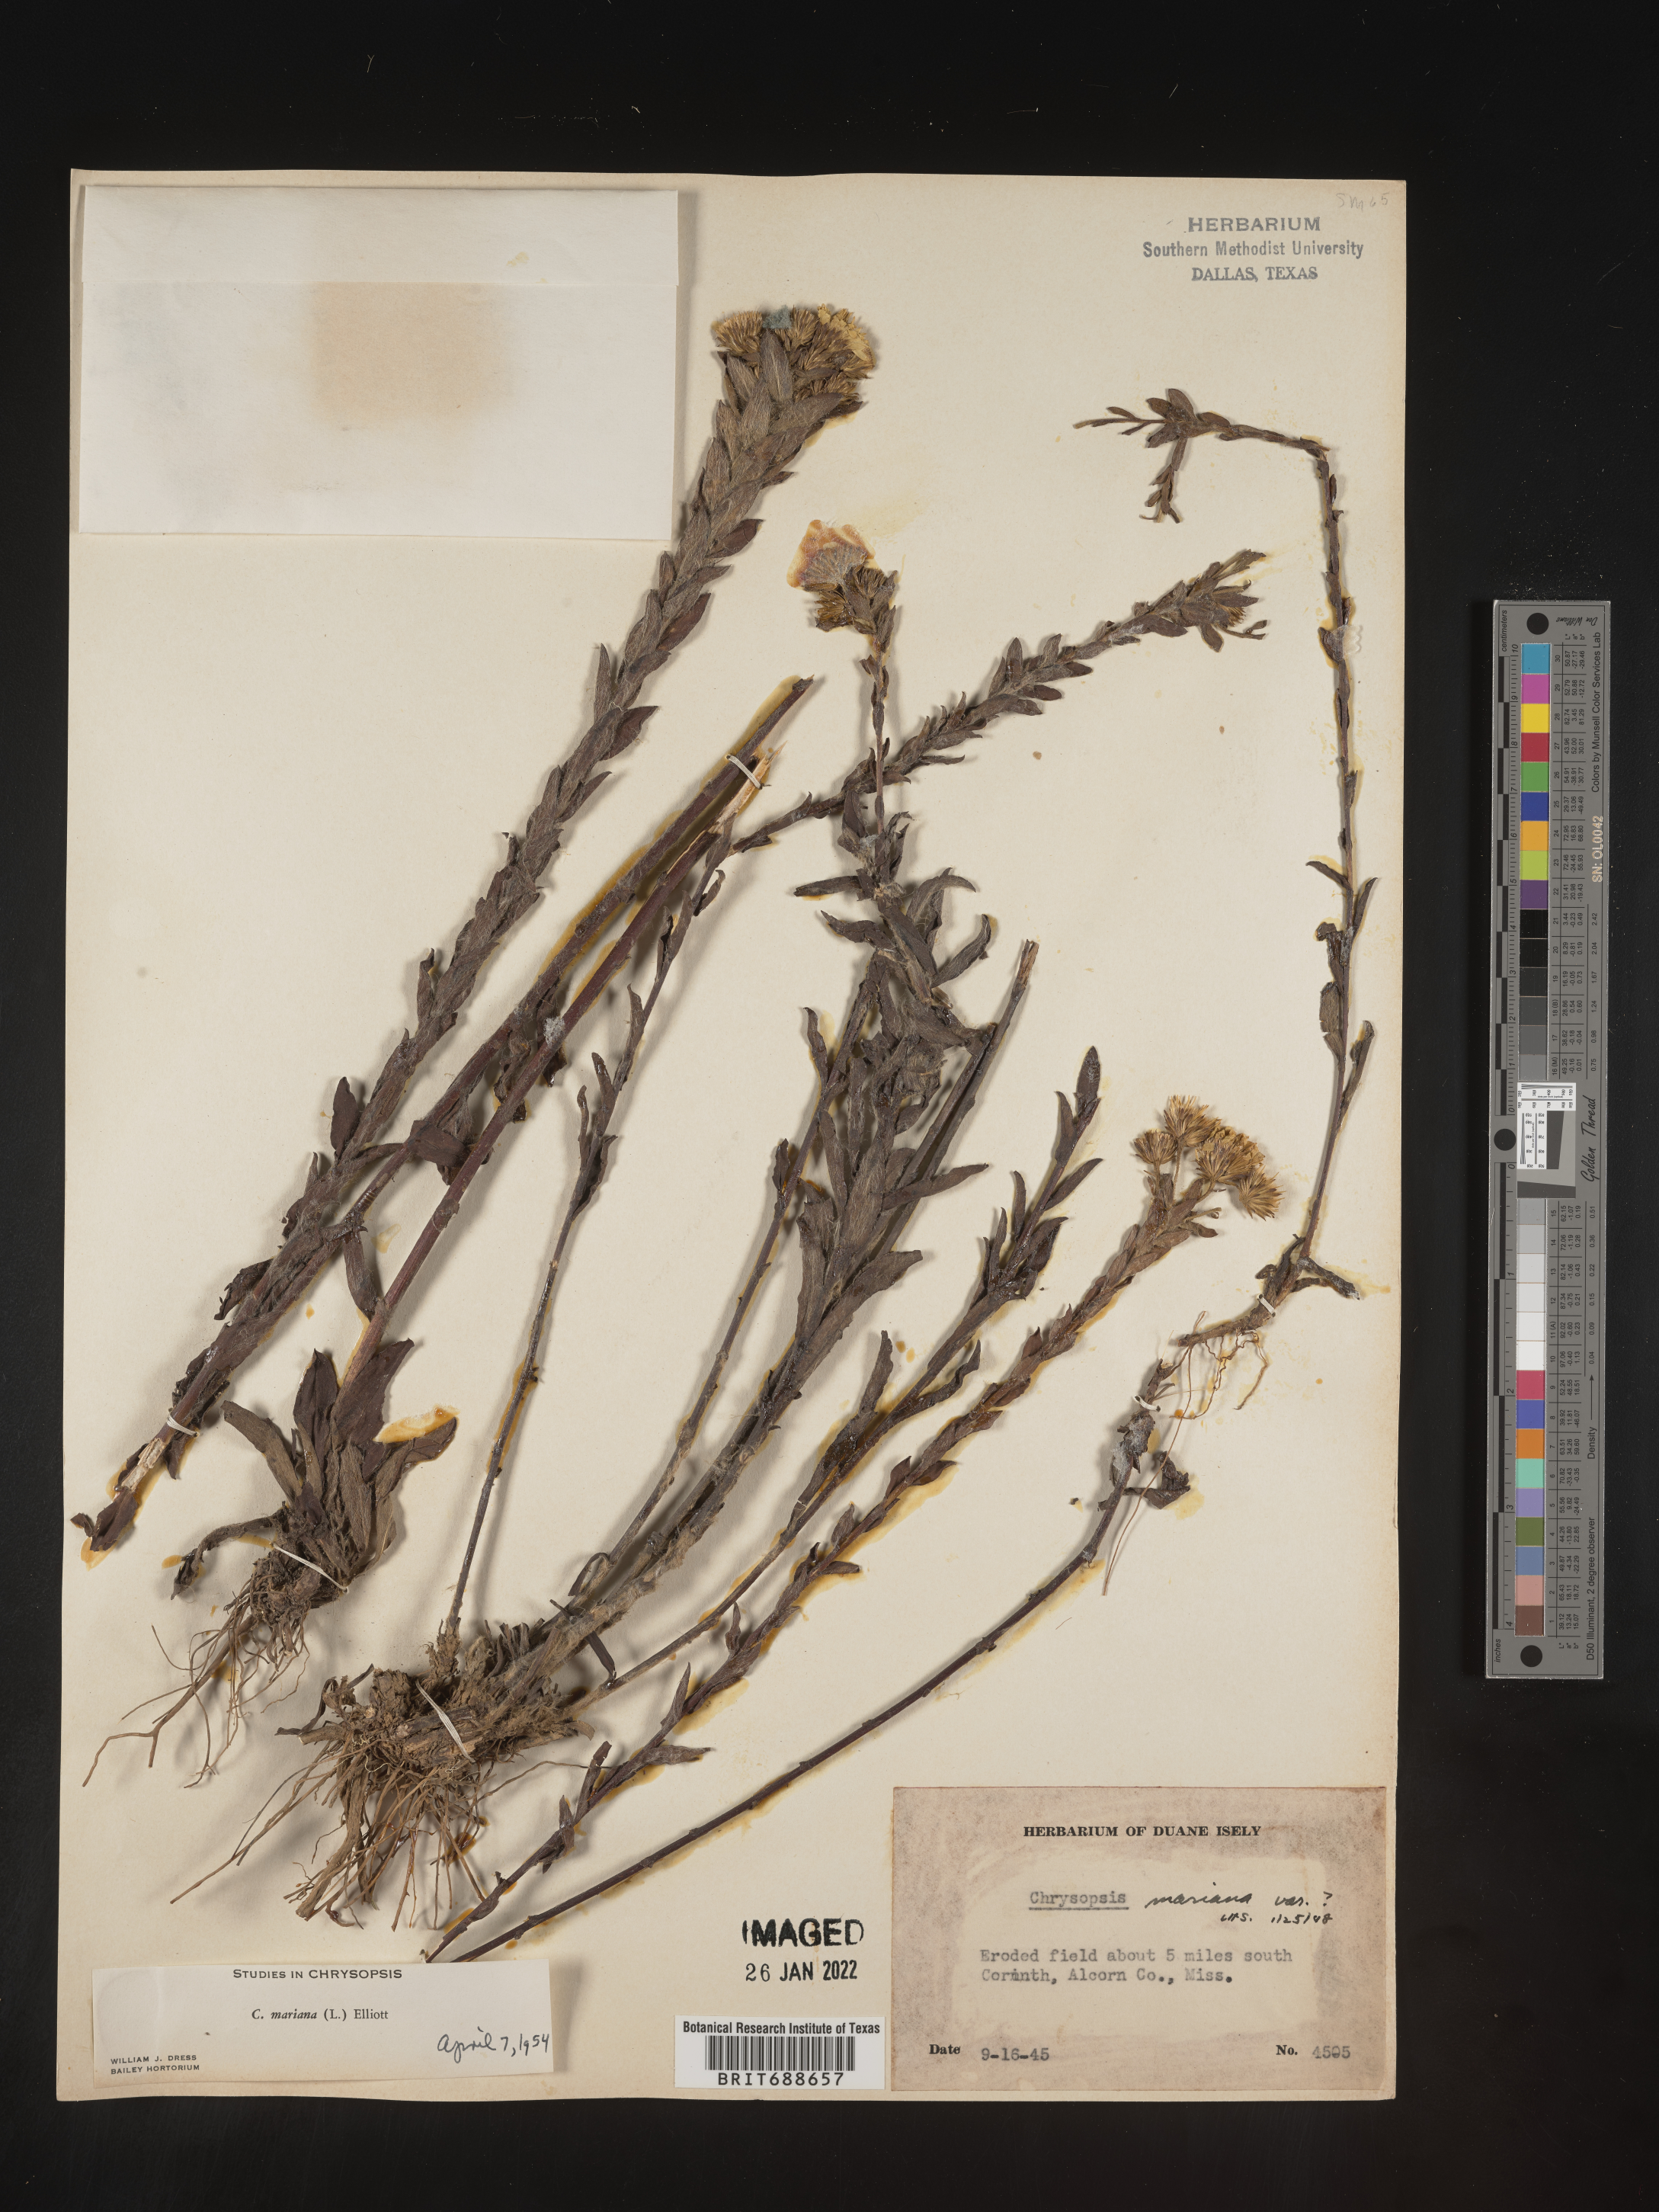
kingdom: Plantae
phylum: Tracheophyta
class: Magnoliopsida
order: Asterales
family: Asteraceae
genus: Chrysopsis
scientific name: Chrysopsis mariana
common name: Maryland golden-aster
